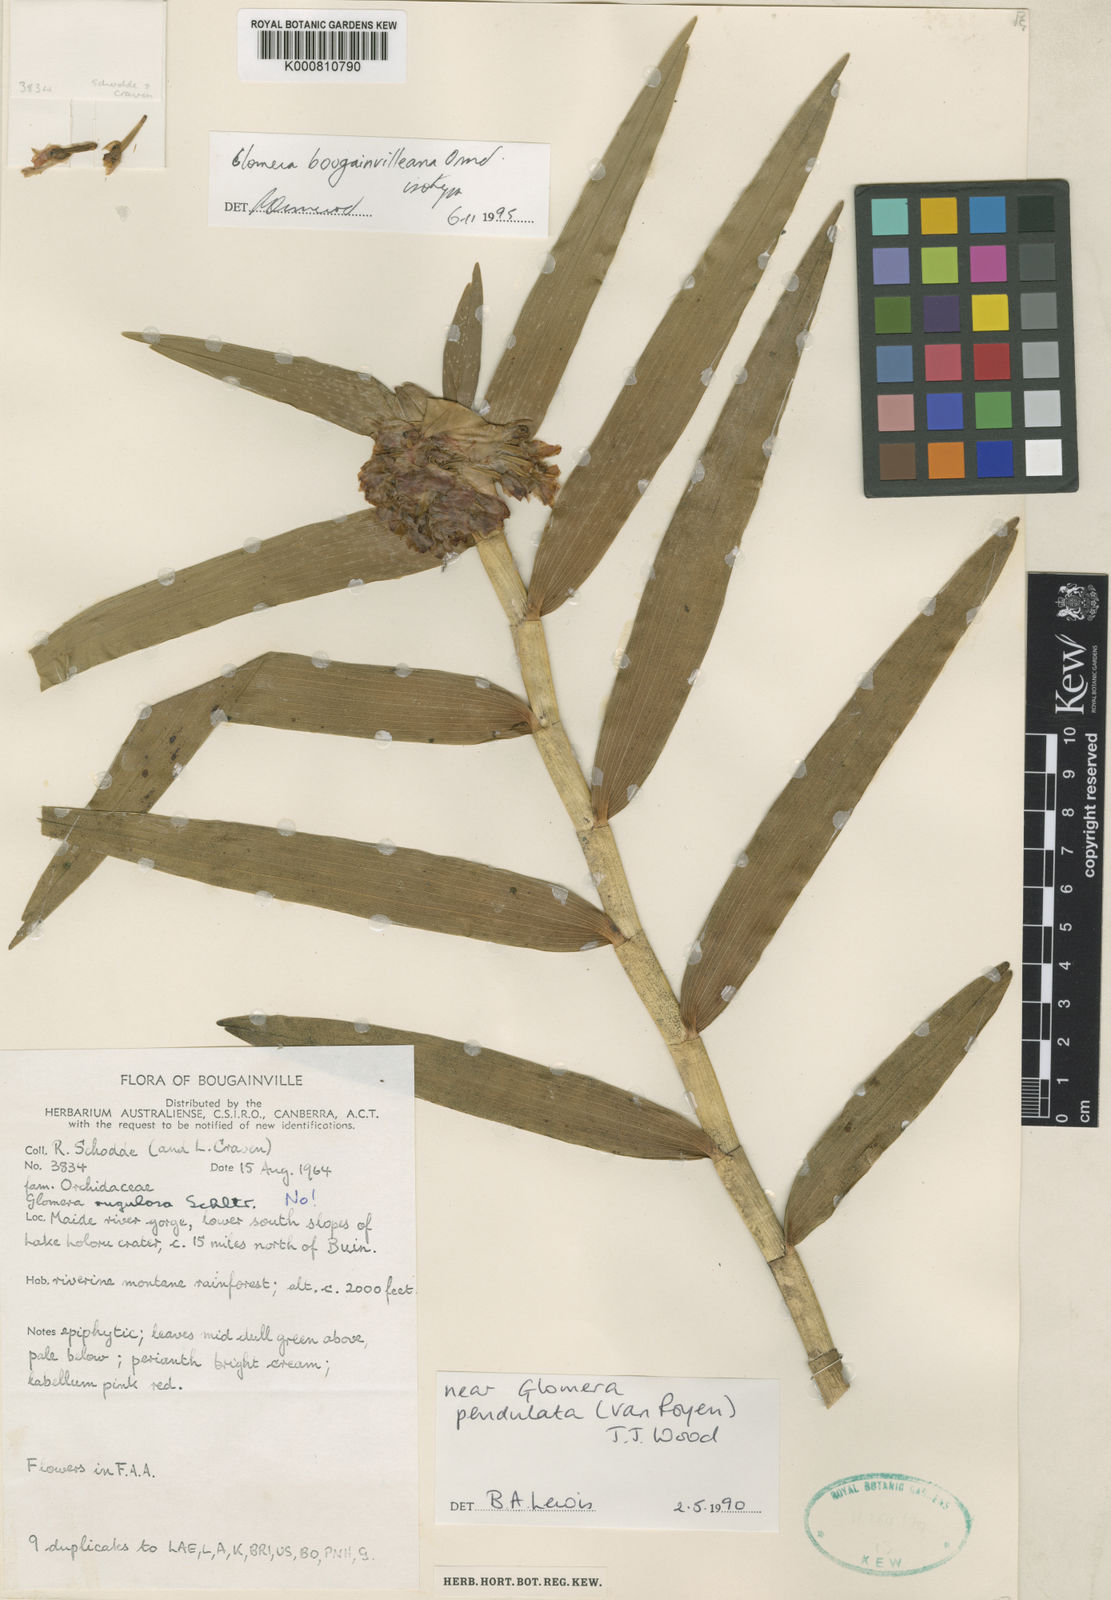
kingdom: Plantae
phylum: Tracheophyta
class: Liliopsida
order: Asparagales
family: Orchidaceae
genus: Glomera
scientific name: Glomera bougainvilleana
